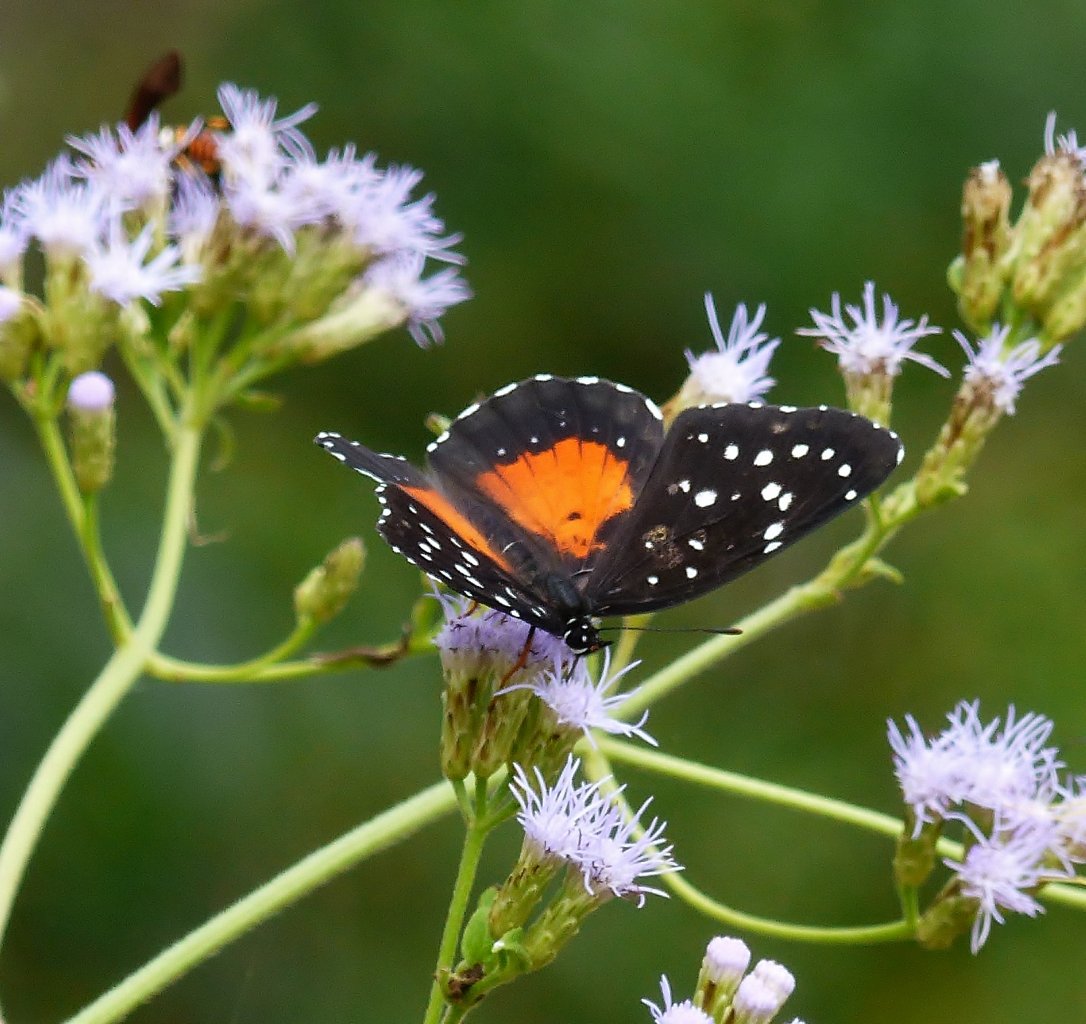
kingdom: Animalia
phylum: Arthropoda
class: Insecta
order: Lepidoptera
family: Nymphalidae
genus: Chlosyne
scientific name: Chlosyne janais
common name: Crimson Patch
